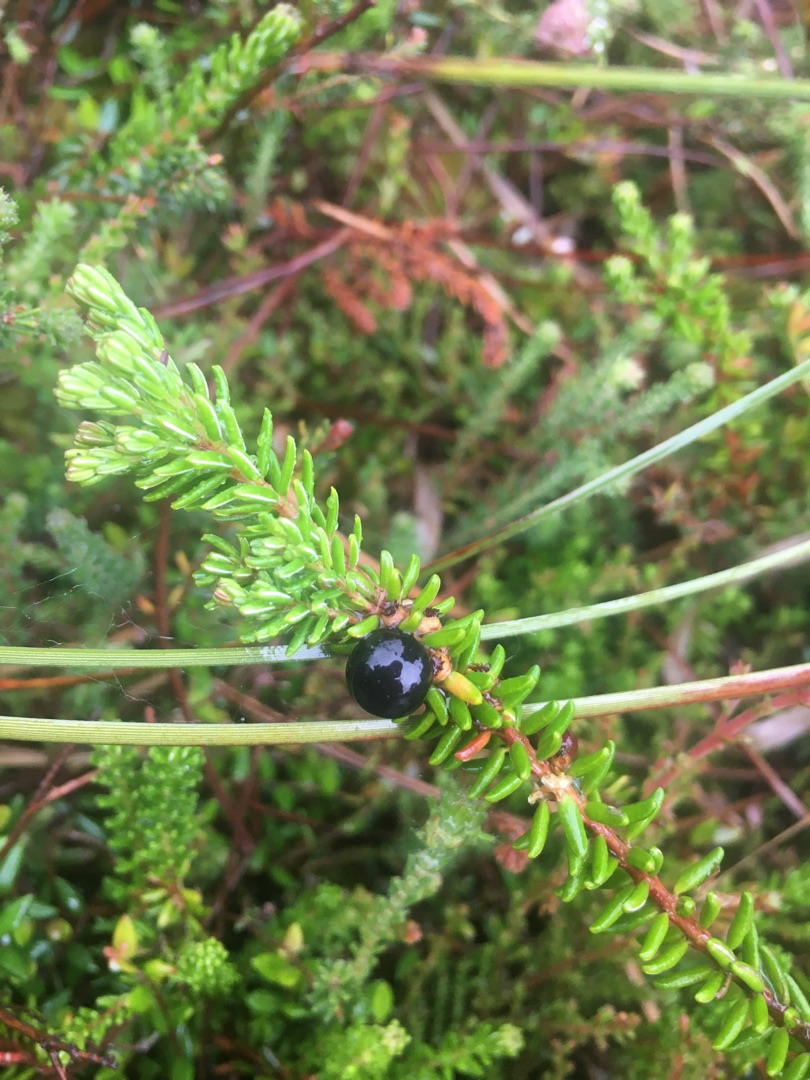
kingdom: Plantae
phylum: Tracheophyta
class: Magnoliopsida
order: Ericales
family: Ericaceae
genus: Empetrum
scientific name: Empetrum nigrum
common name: Revling
